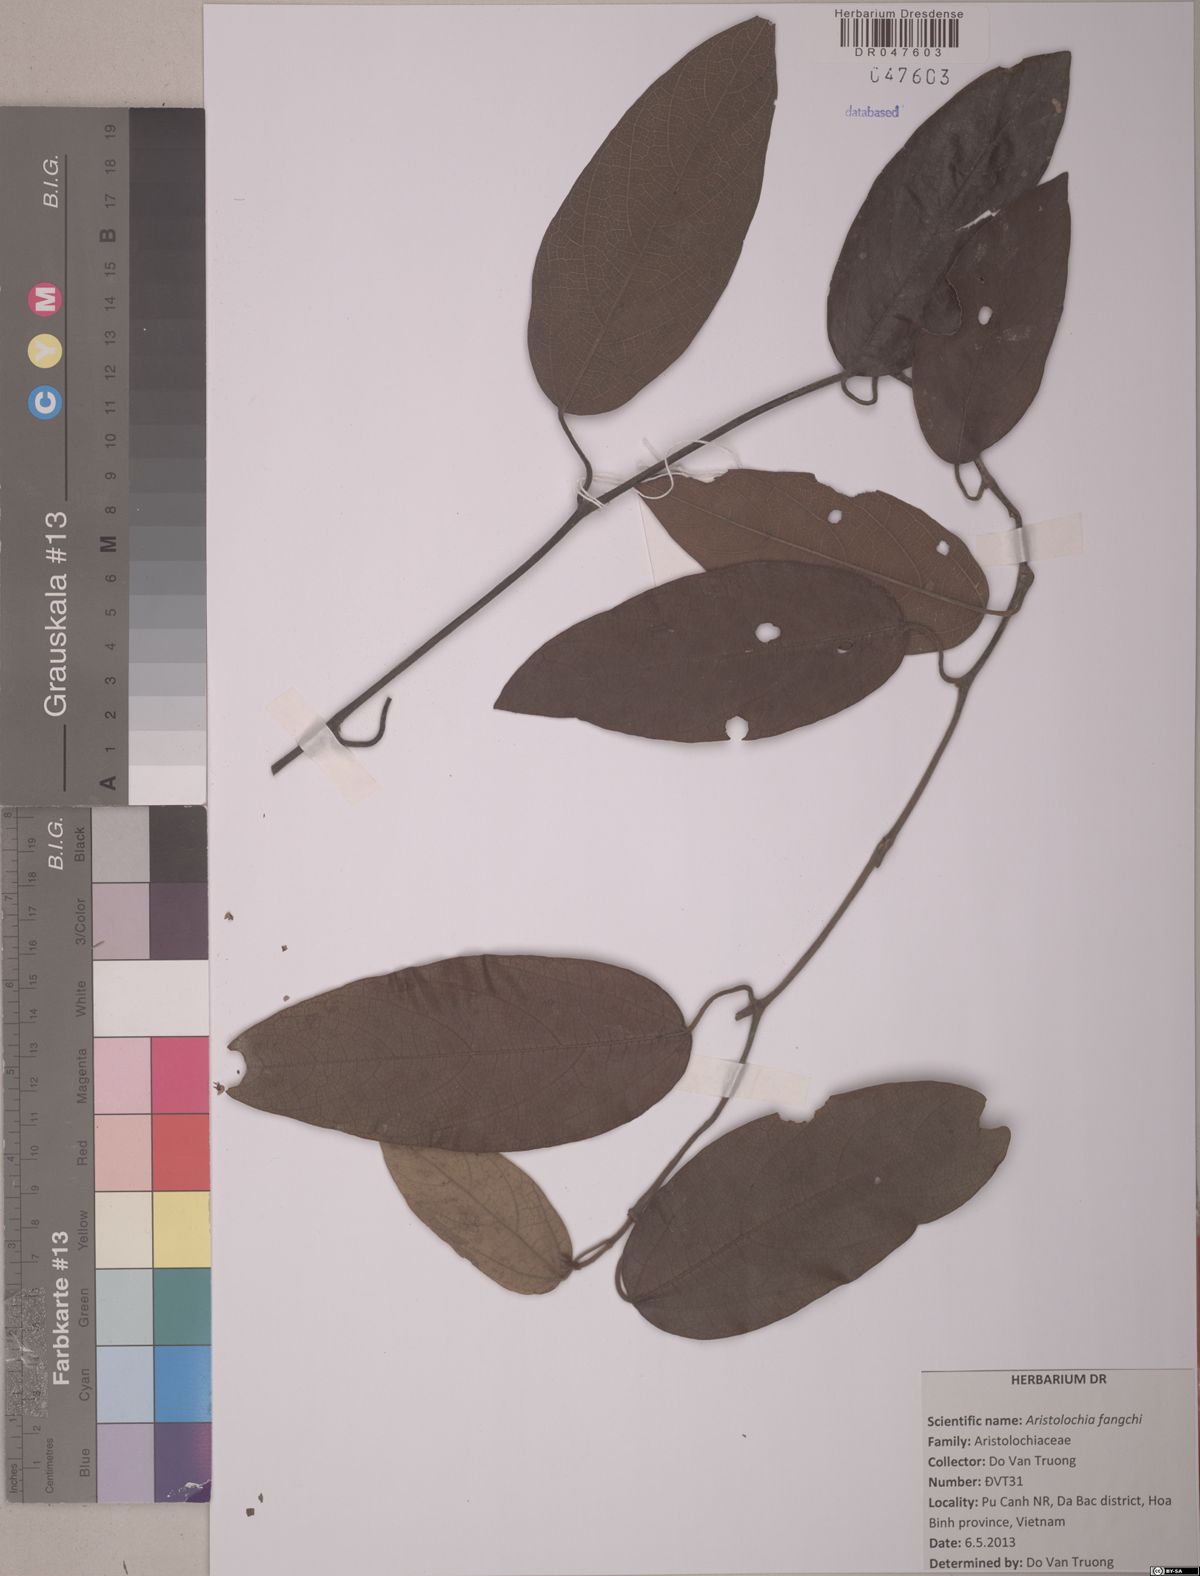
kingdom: Plantae
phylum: Tracheophyta
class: Magnoliopsida
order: Piperales
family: Aristolochiaceae
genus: Isotrema
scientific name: Isotrema fangchi
